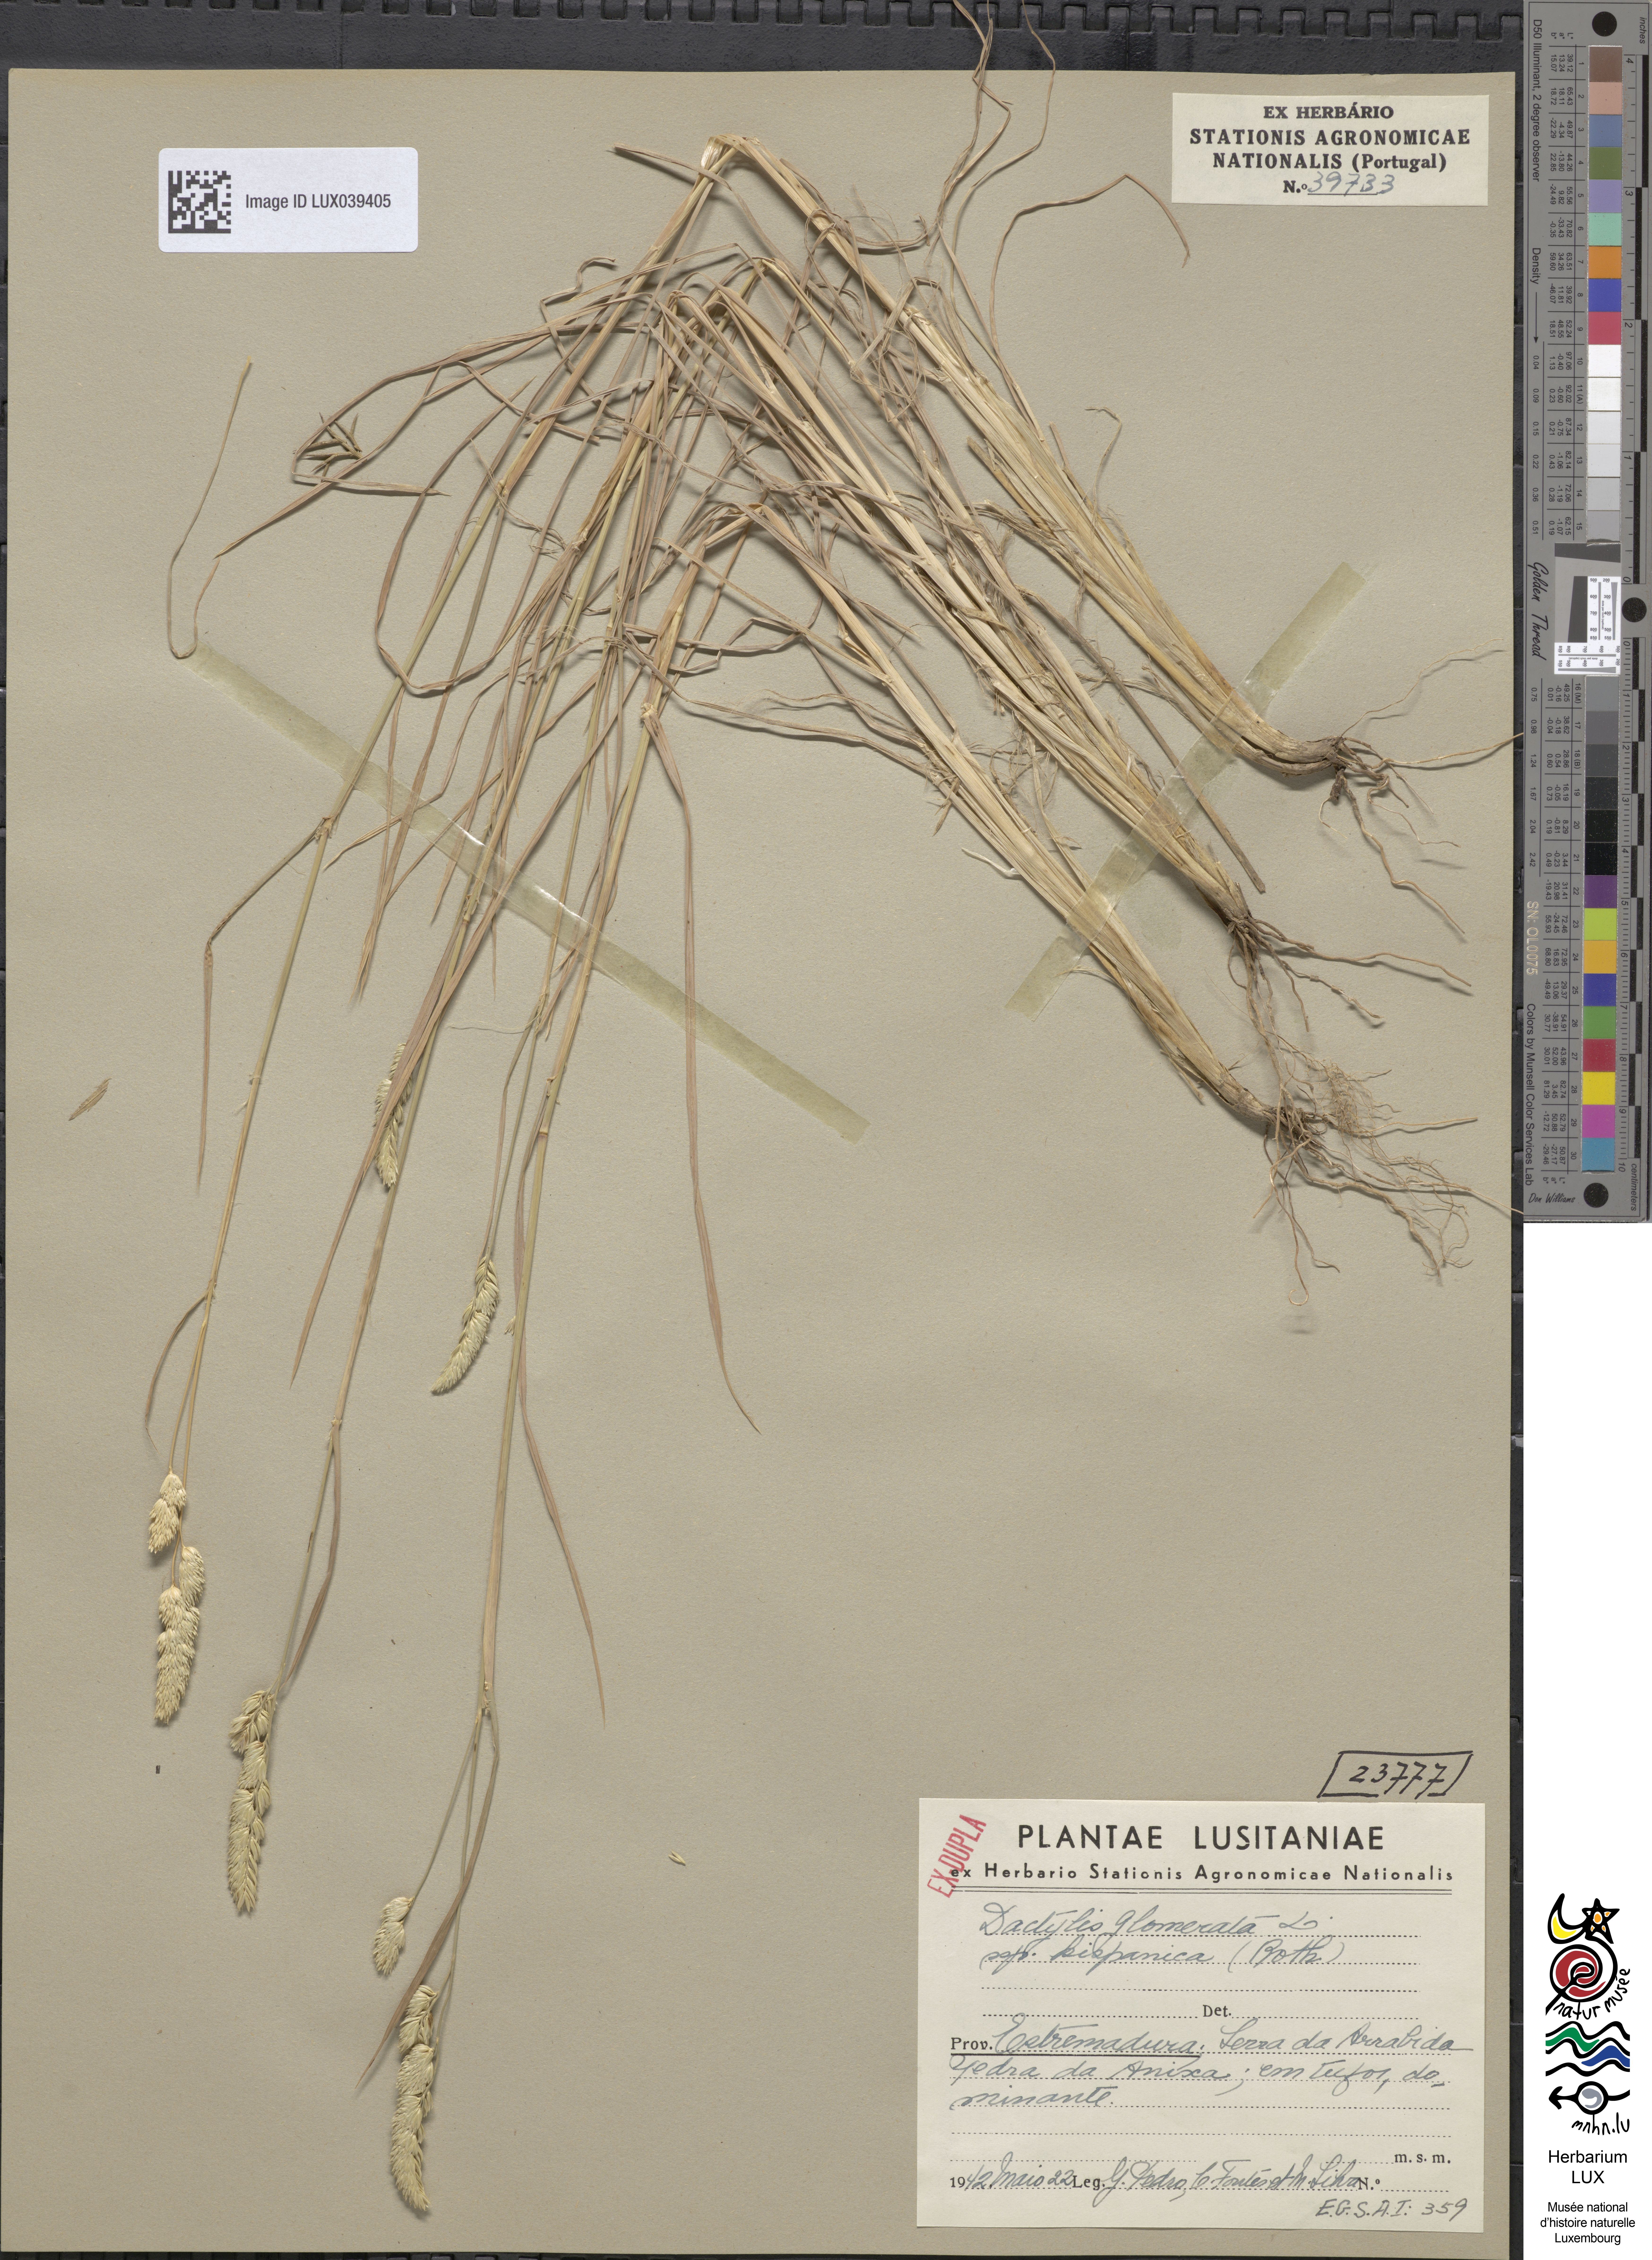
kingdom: Plantae
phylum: Tracheophyta
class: Liliopsida
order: Poales
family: Poaceae
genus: Dactylis
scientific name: Dactylis glomerata
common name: Orchardgrass
